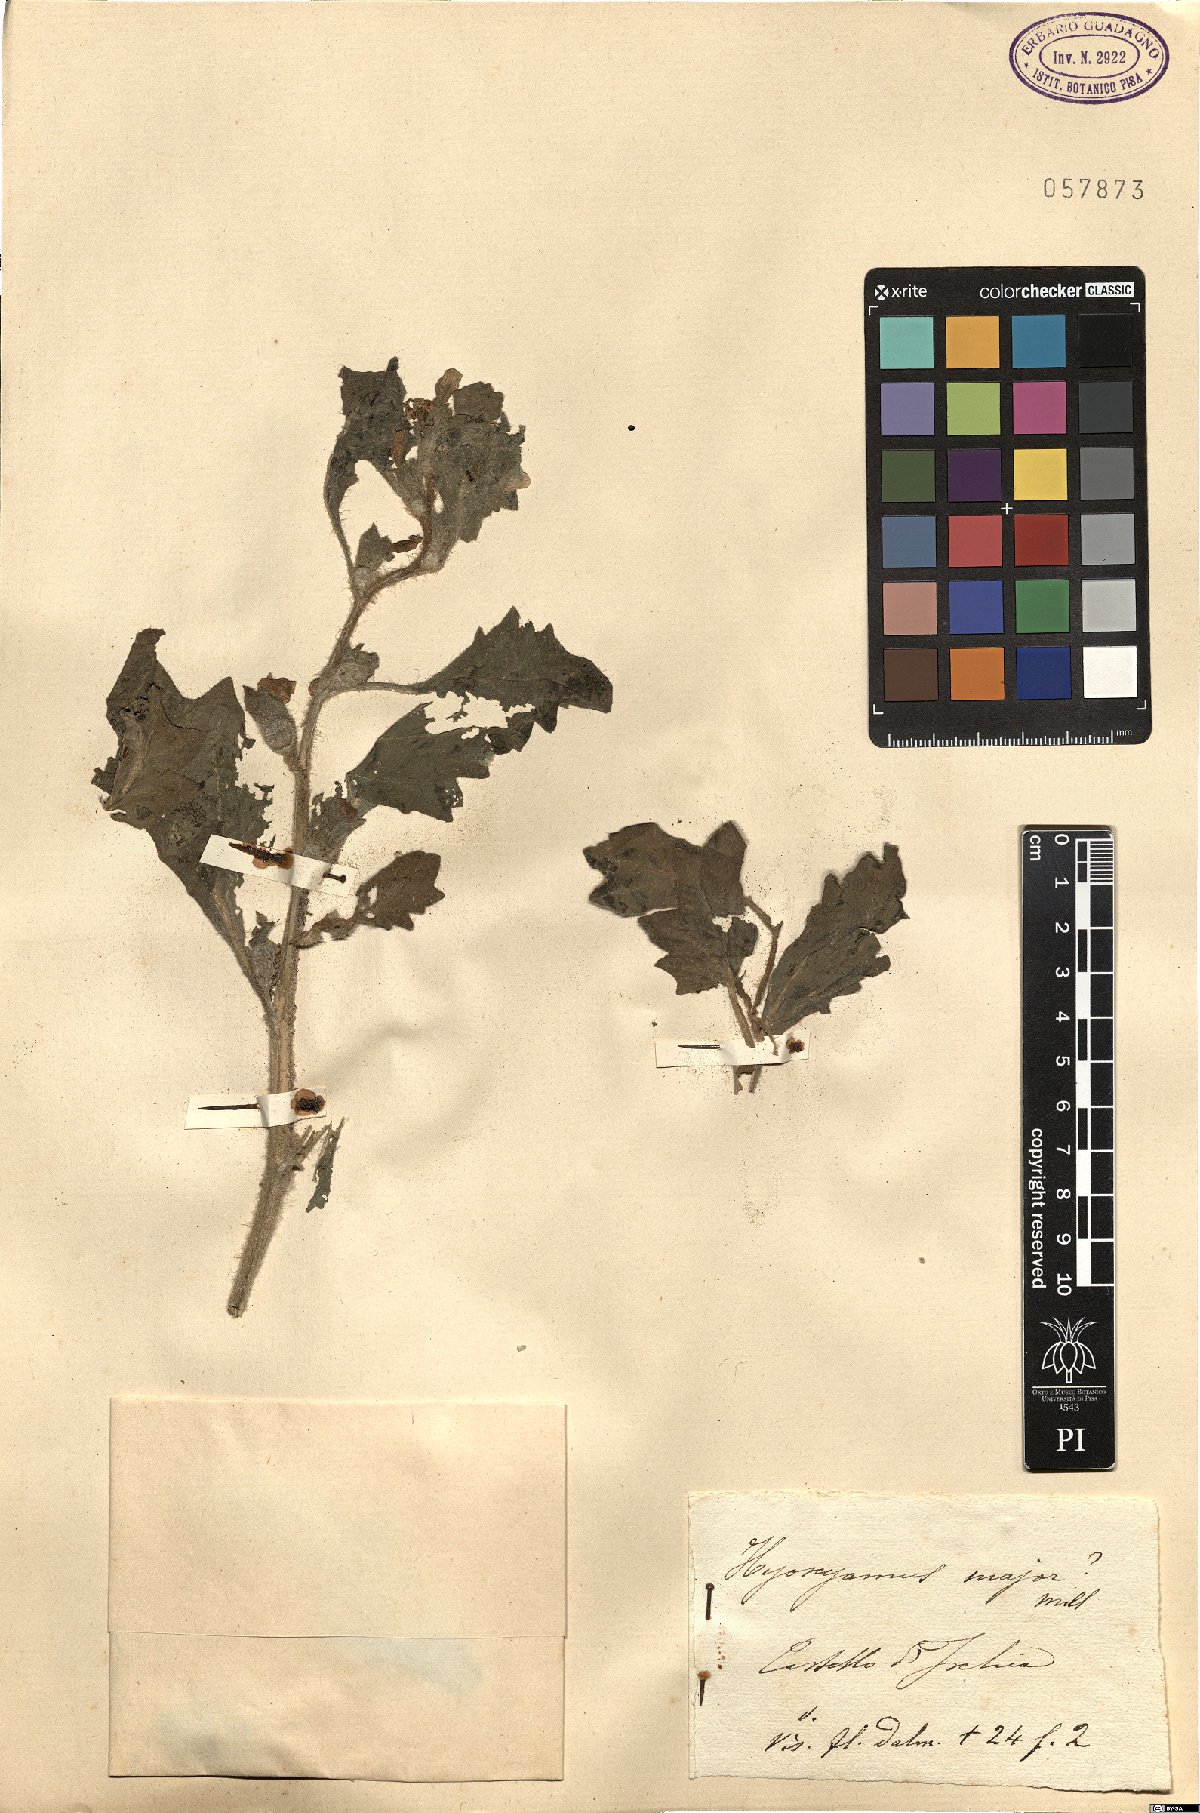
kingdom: Plantae
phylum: Tracheophyta
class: Magnoliopsida
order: Solanales
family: Solanaceae
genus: Hyoscyamus
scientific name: Hyoscyamus albus
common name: White henbane
